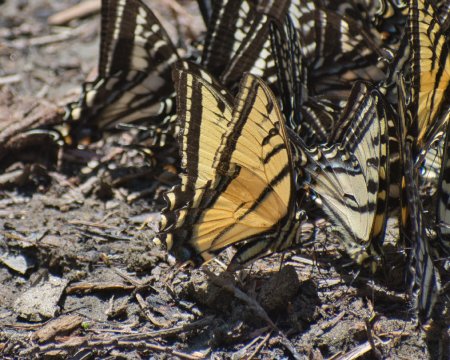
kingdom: Animalia
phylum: Arthropoda
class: Insecta
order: Lepidoptera
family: Papilionidae
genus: Papilio
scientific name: Papilio multicaudata
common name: Two-tailed Swallowtail
